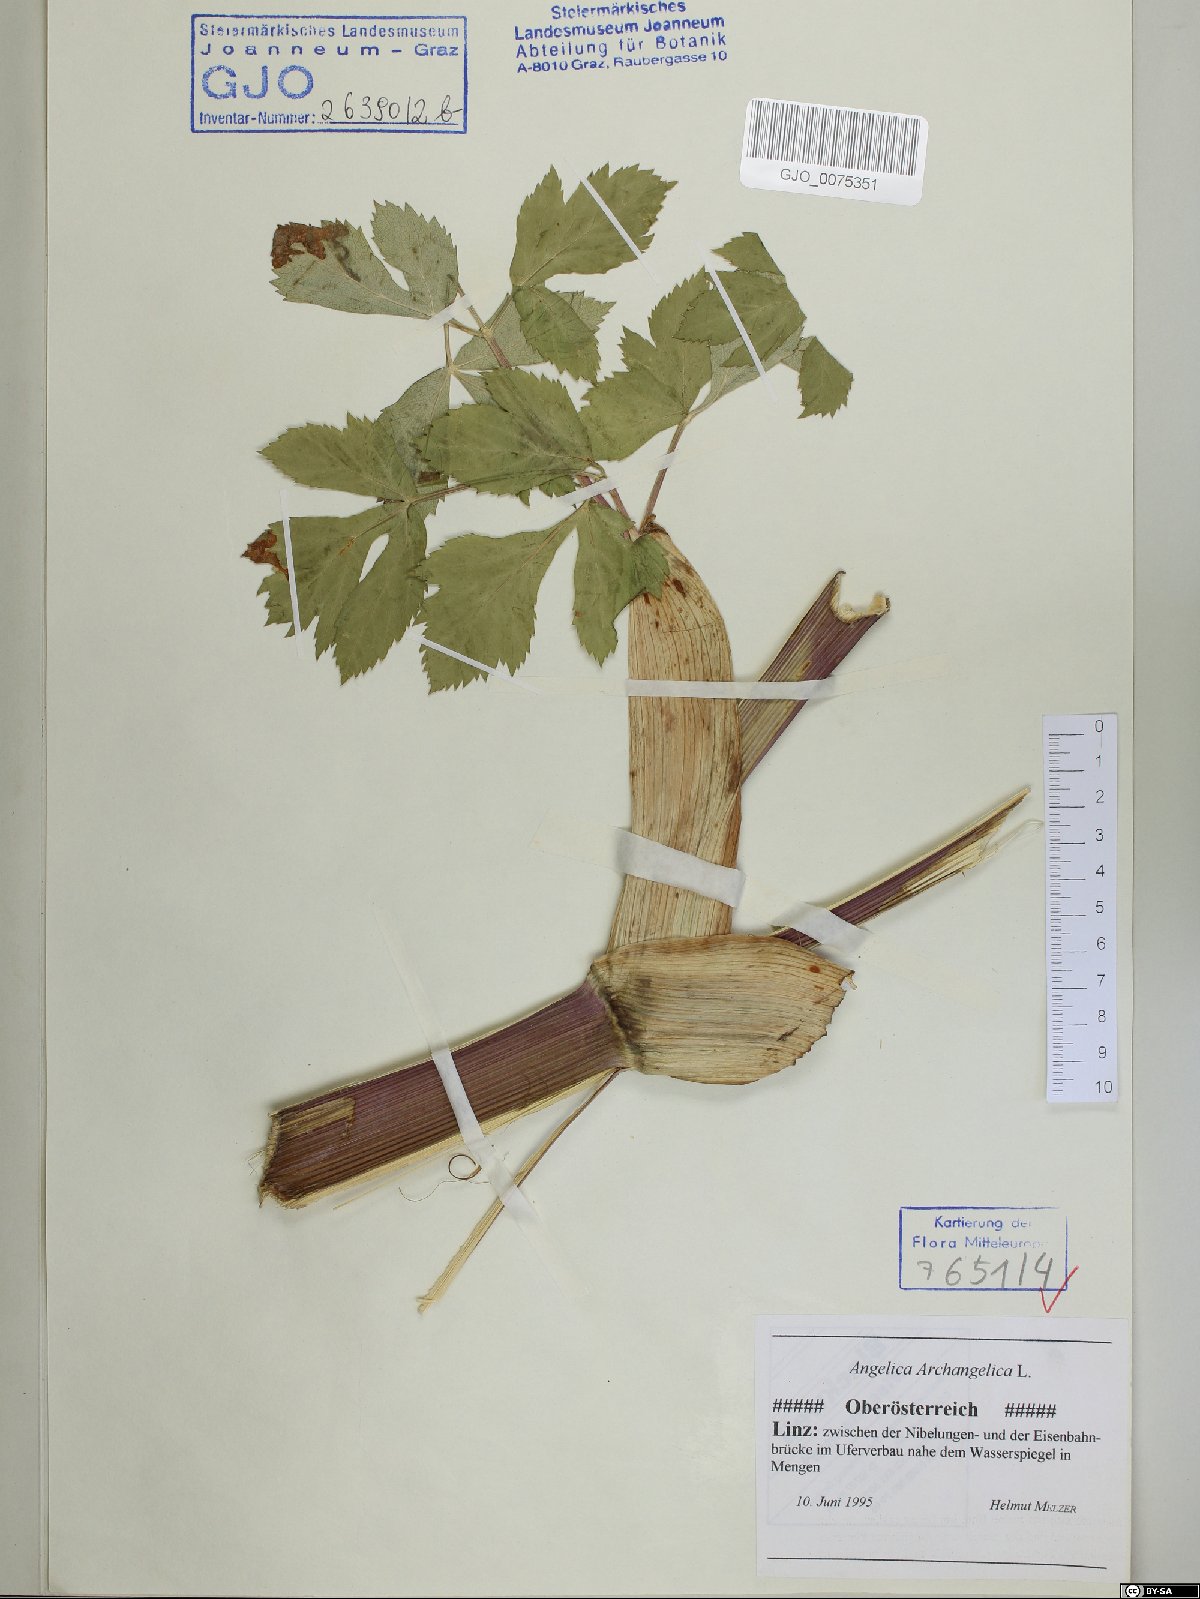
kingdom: Plantae
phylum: Tracheophyta
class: Magnoliopsida
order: Apiales
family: Apiaceae
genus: Angelica
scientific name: Angelica archangelica
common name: Garden angelica
